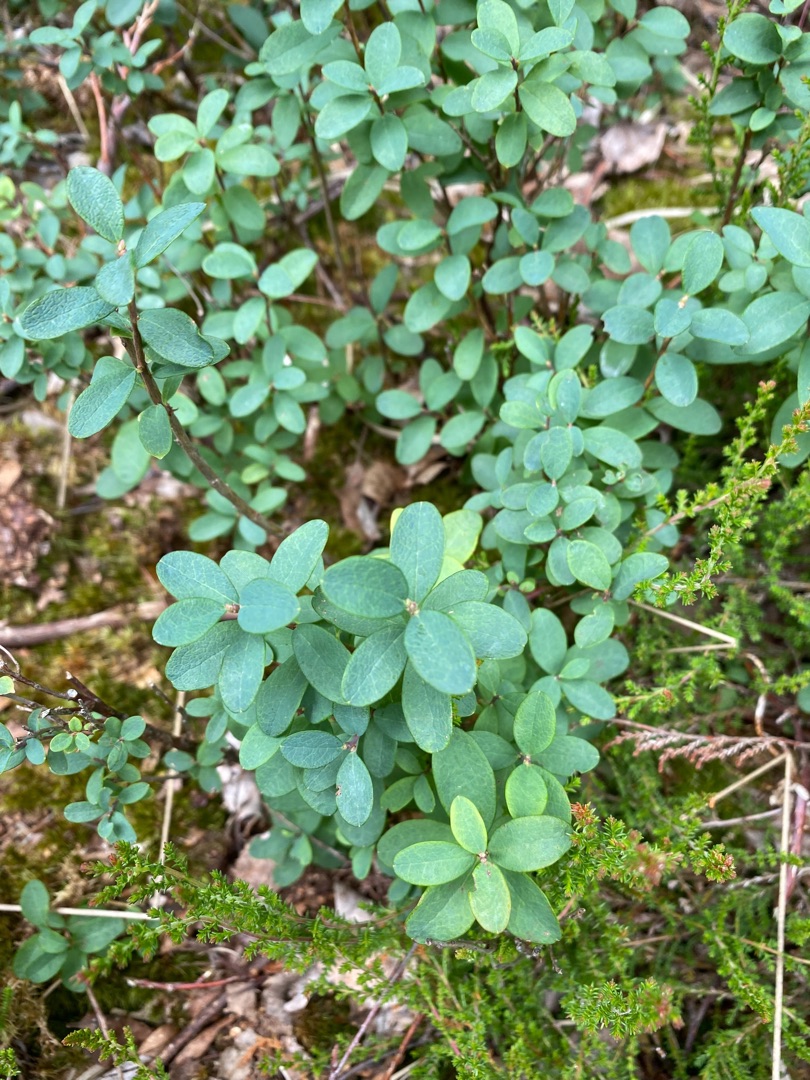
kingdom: Plantae
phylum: Tracheophyta
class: Magnoliopsida
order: Ericales
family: Ericaceae
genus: Vaccinium
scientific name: Vaccinium uliginosum
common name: Mose-bølle
